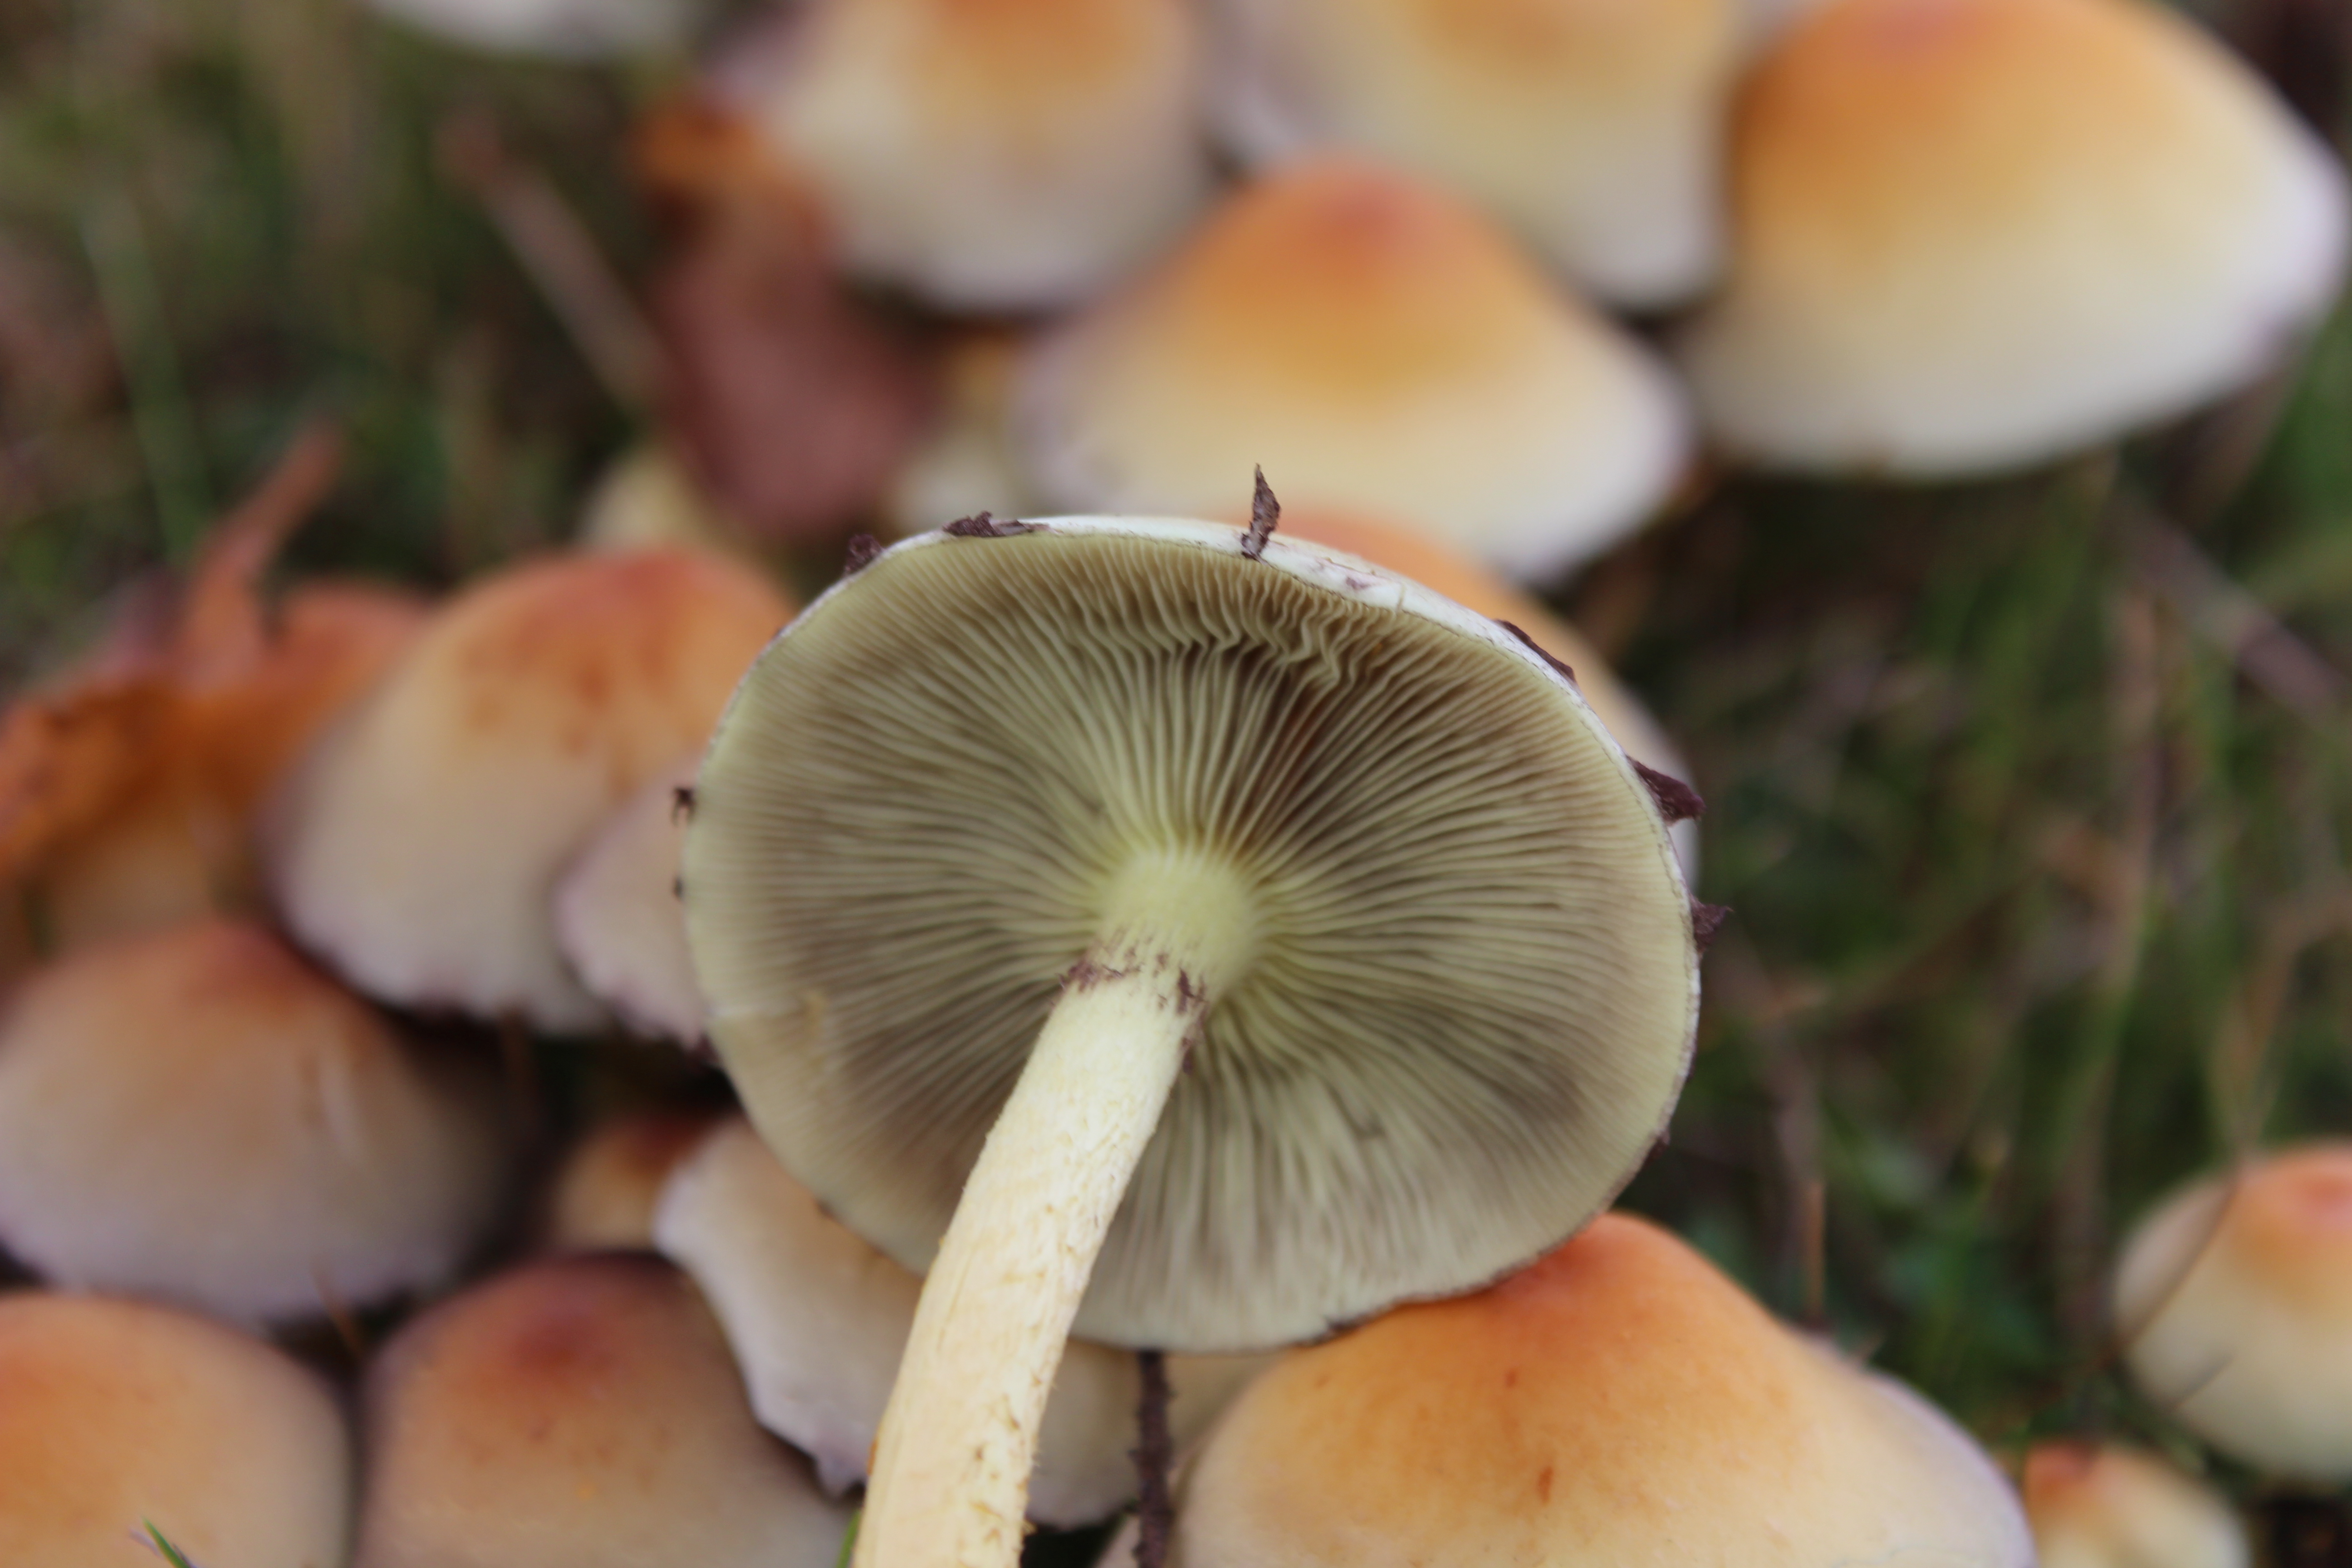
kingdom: Fungi
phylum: Basidiomycota
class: Agaricomycetes
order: Agaricales
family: Strophariaceae
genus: Hypholoma
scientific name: Hypholoma fasciculare
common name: Sulphur tuft
